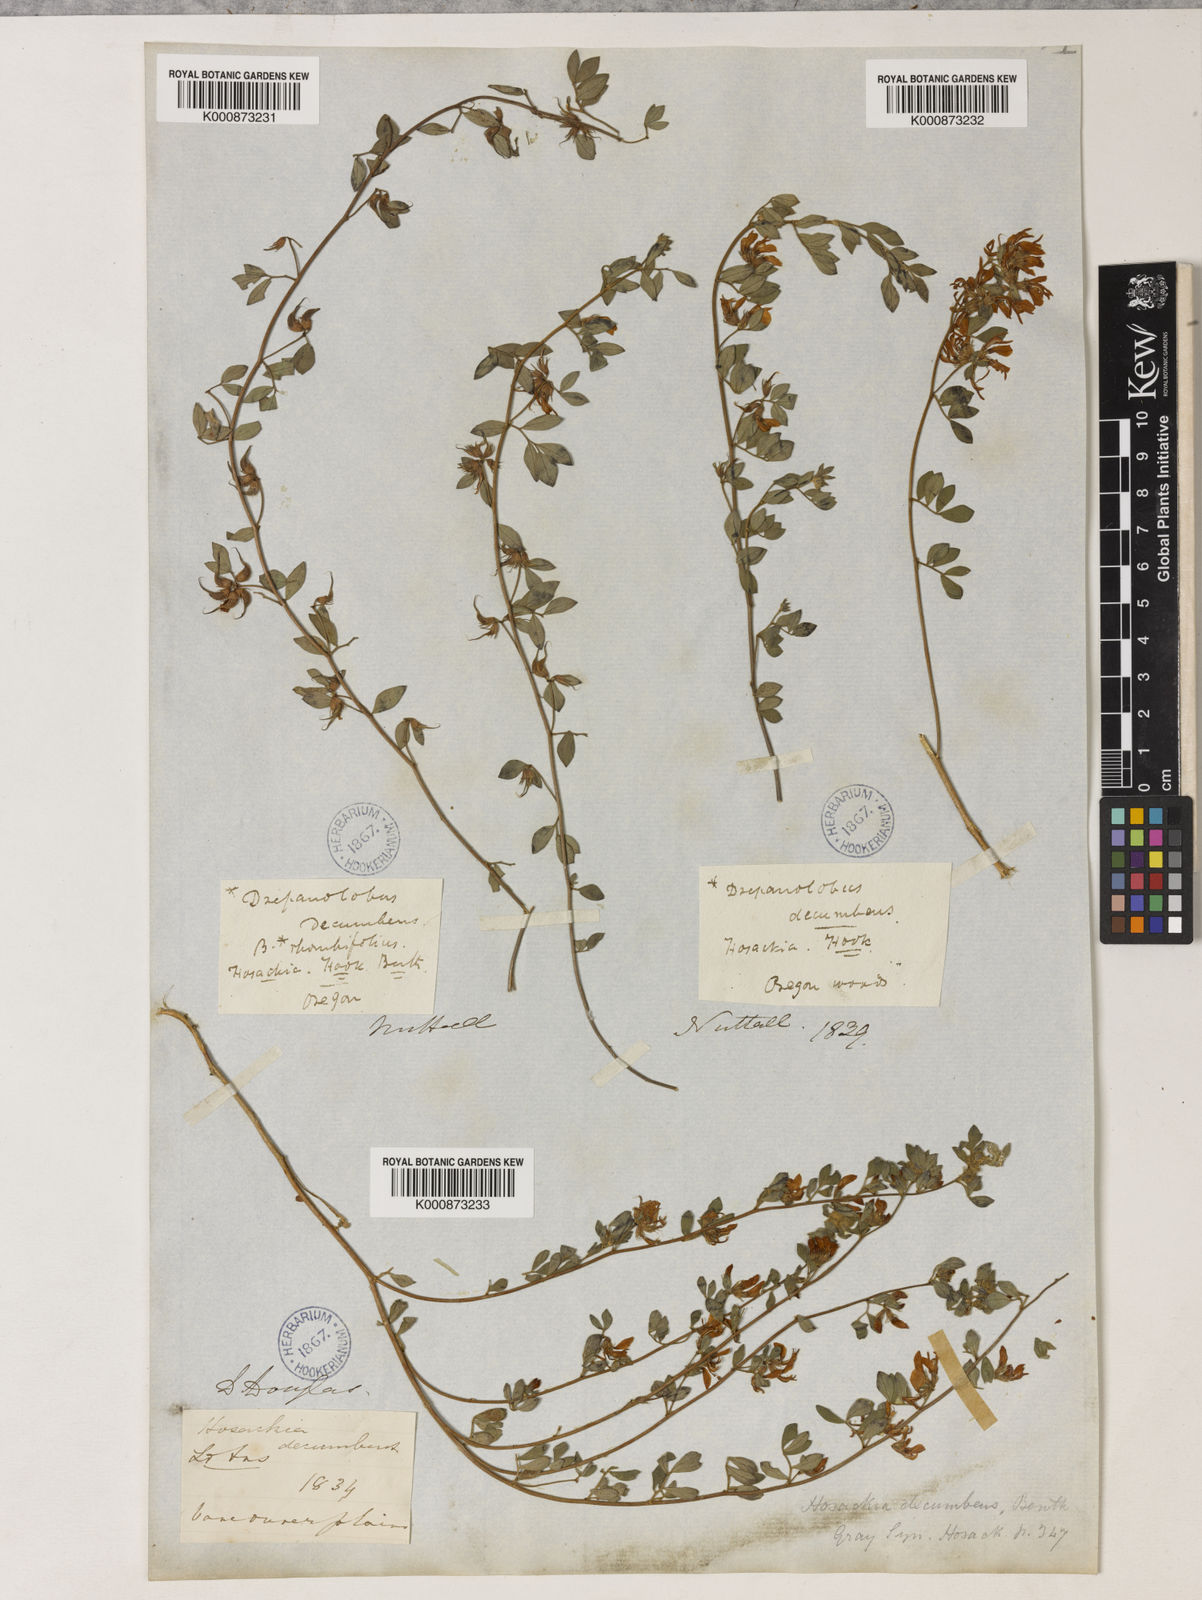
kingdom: Plantae
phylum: Tracheophyta
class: Magnoliopsida
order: Fabales
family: Fabaceae
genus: Acmispon
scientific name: Acmispon decumbens
